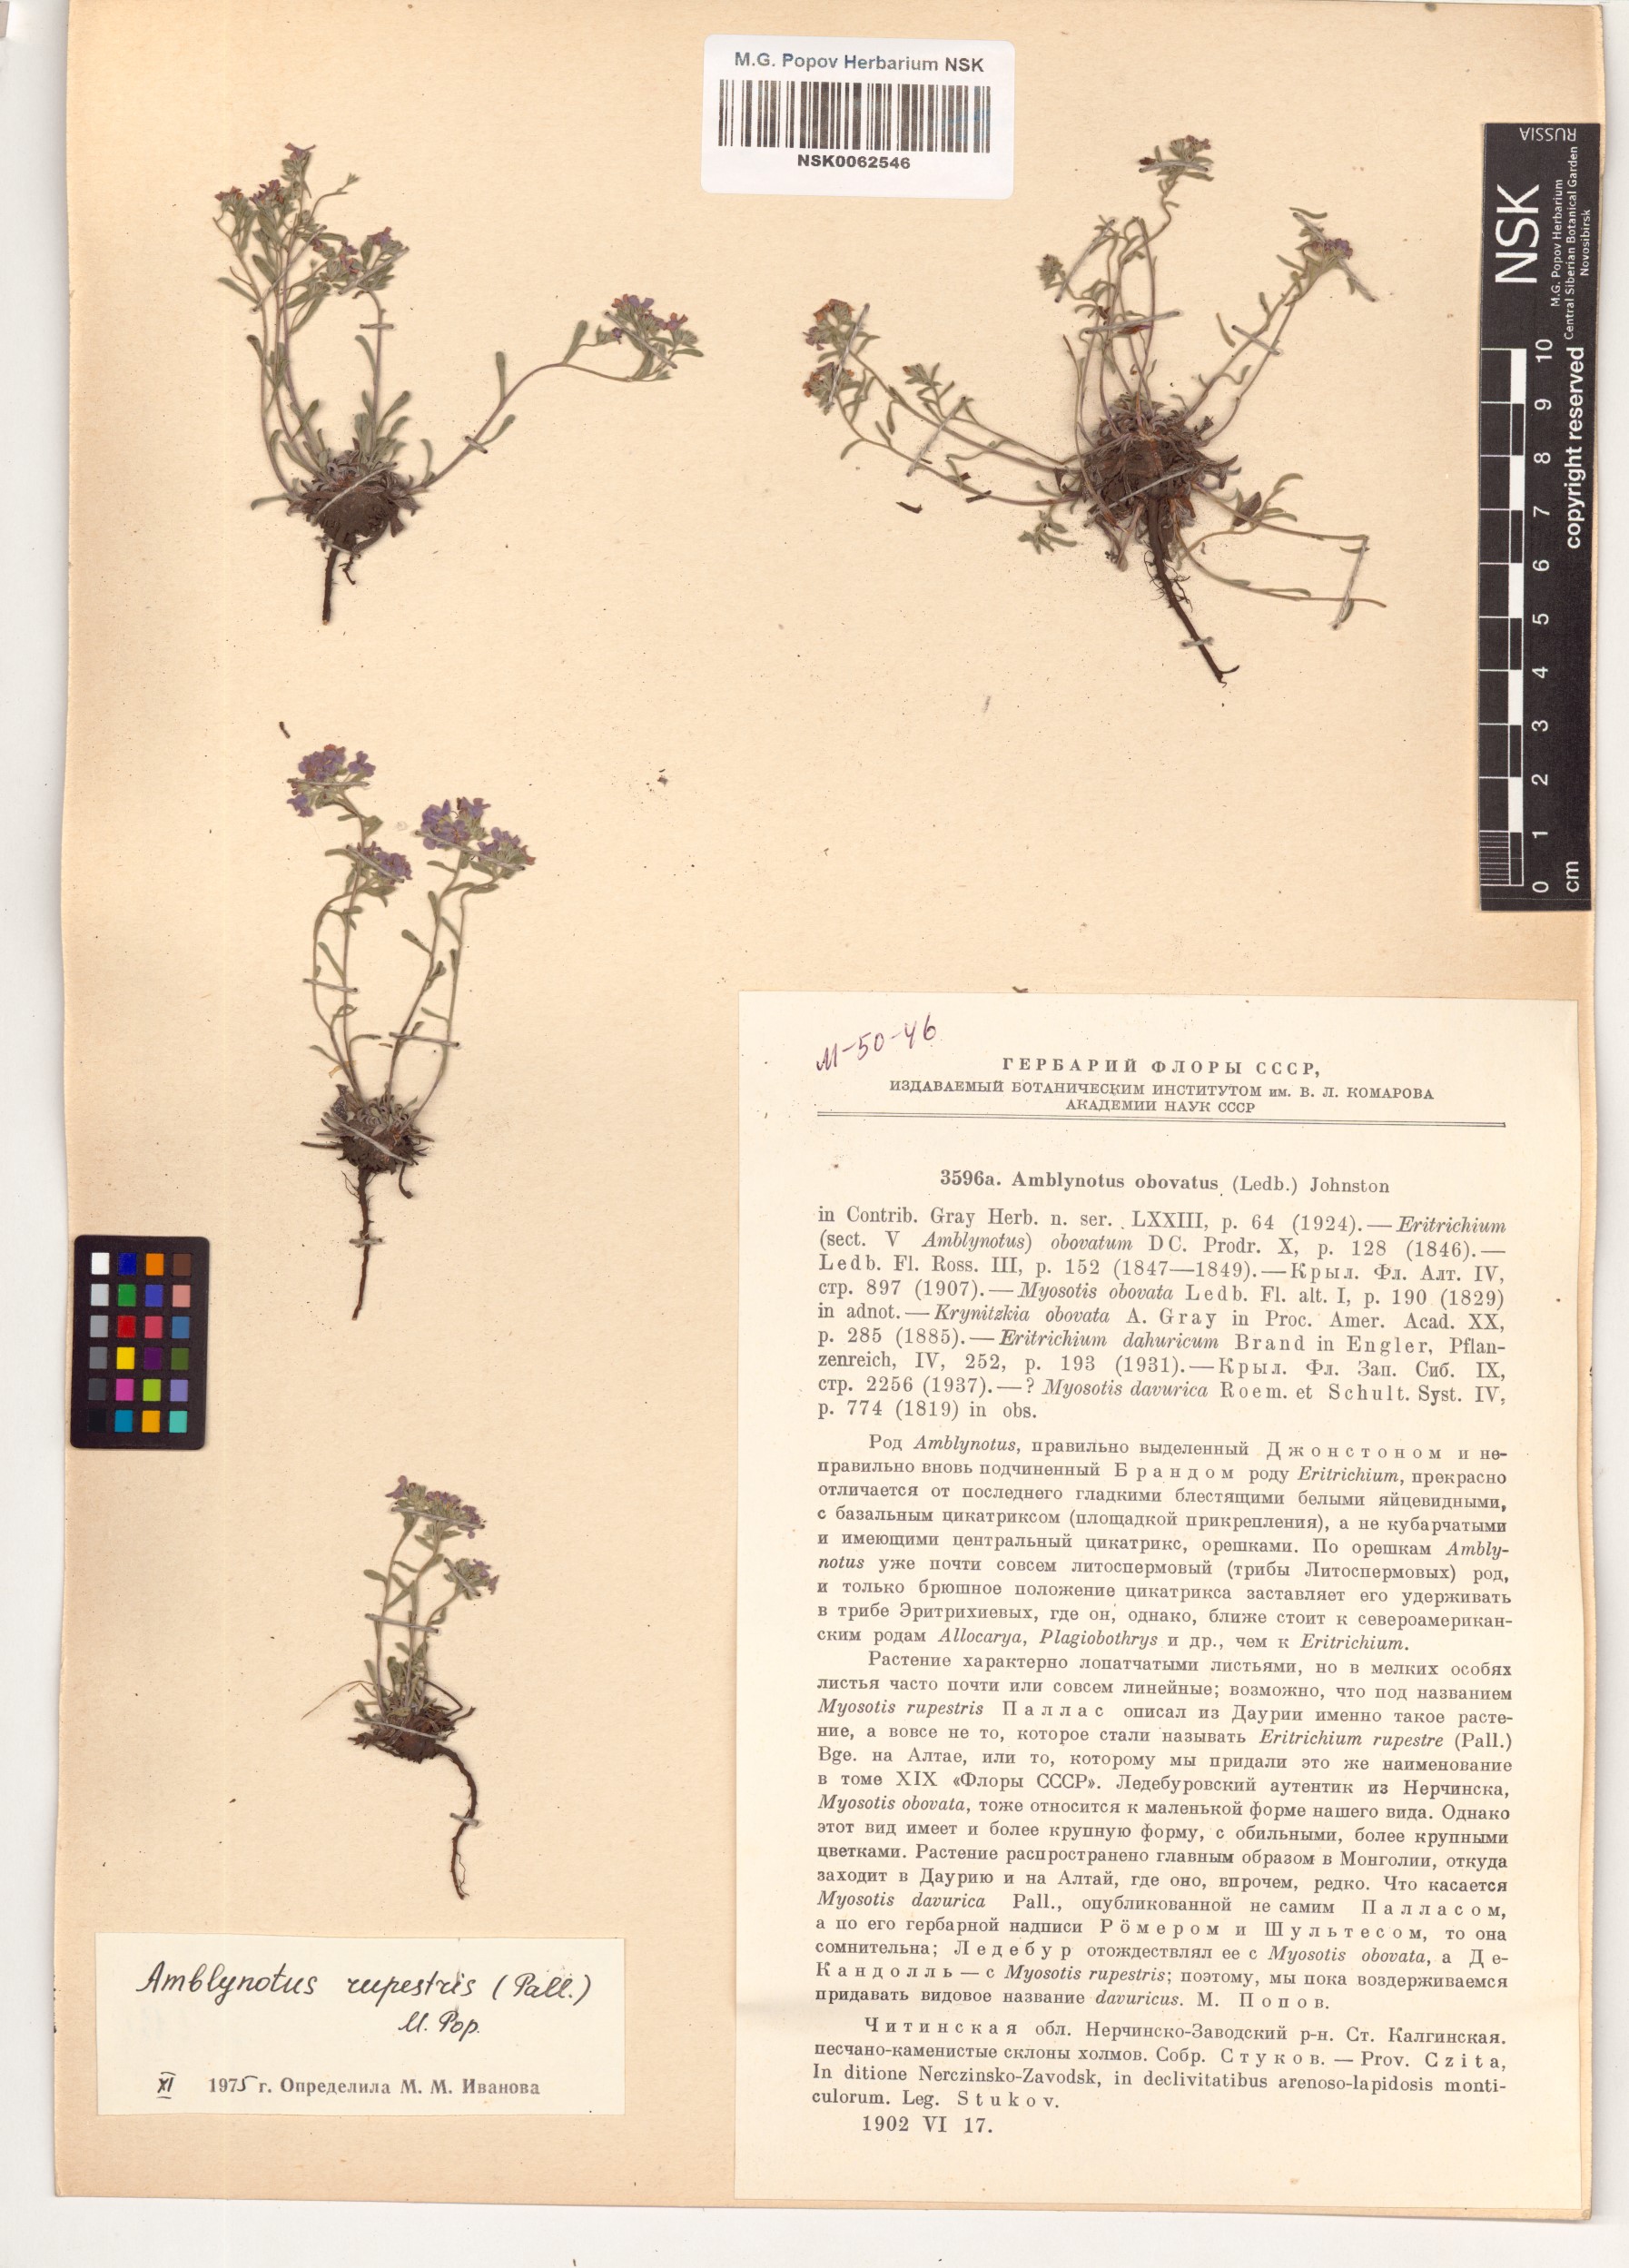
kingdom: Plantae
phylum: Tracheophyta
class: Magnoliopsida
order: Boraginales
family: Boraginaceae
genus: Eritrichium
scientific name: Eritrichium rupestre
